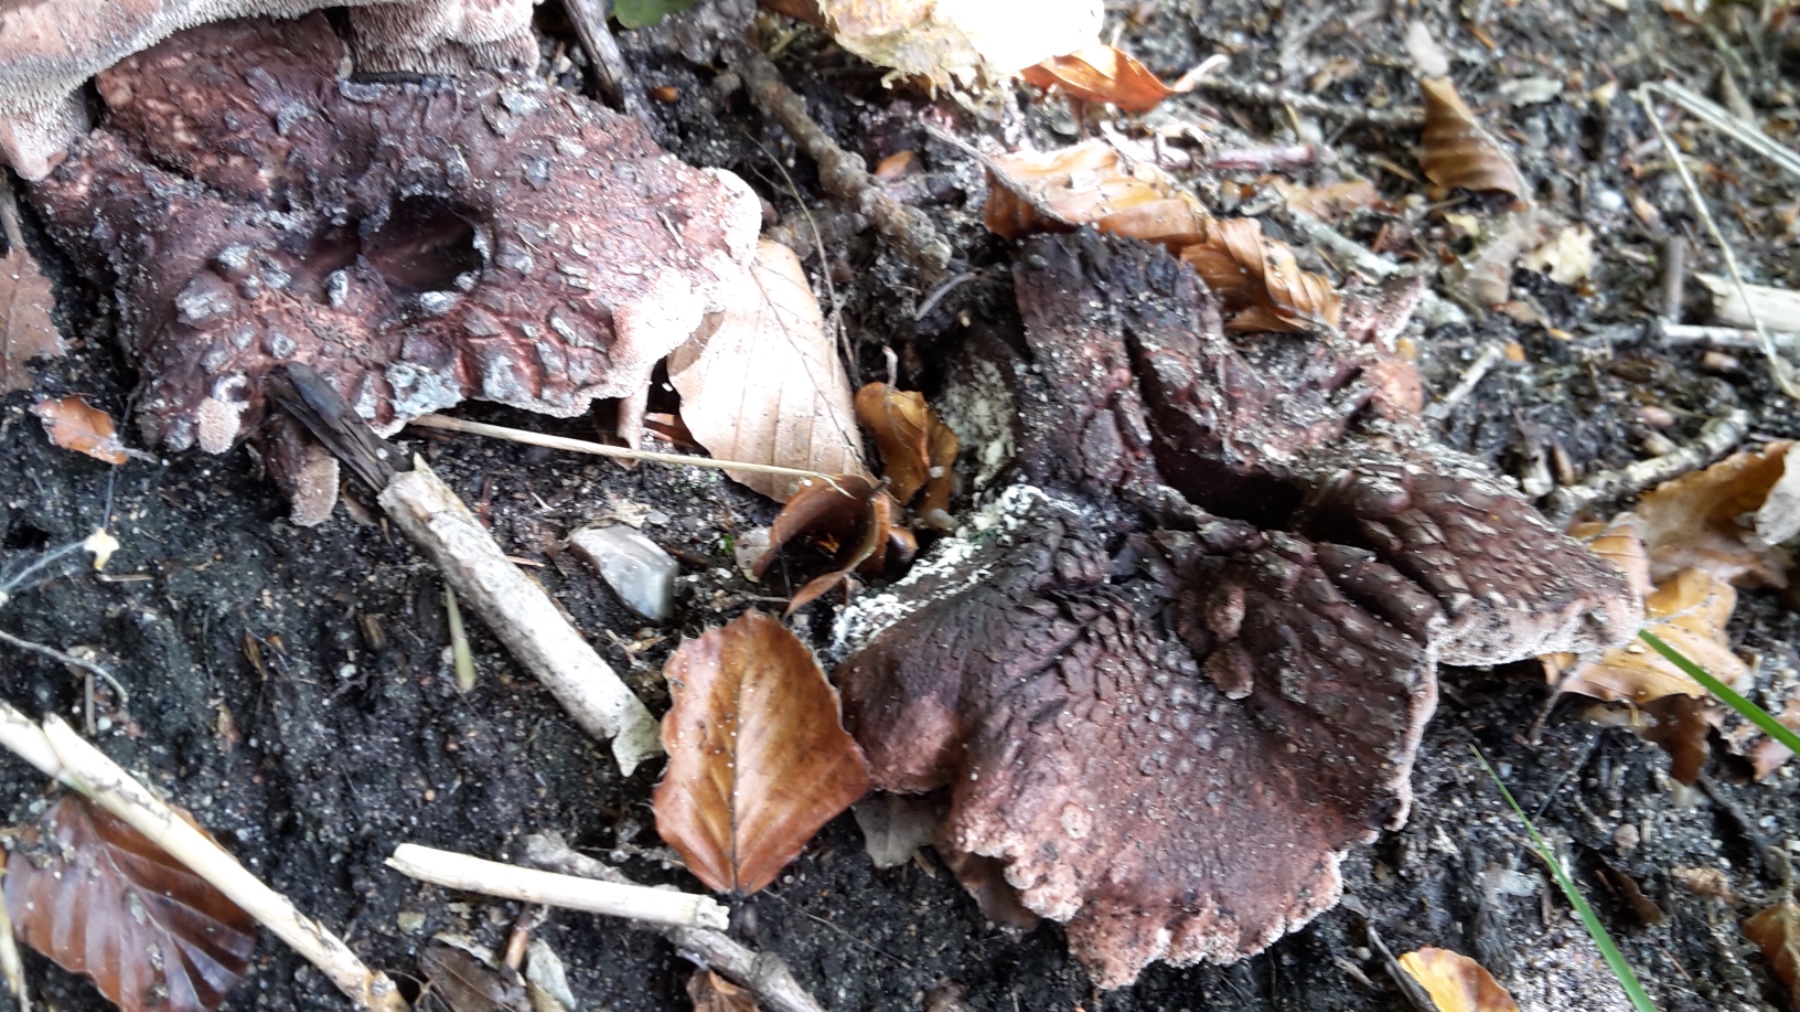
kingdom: Fungi
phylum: Basidiomycota
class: Agaricomycetes
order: Thelephorales
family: Bankeraceae
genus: Hydnellum
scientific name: Hydnellum nemorosum
